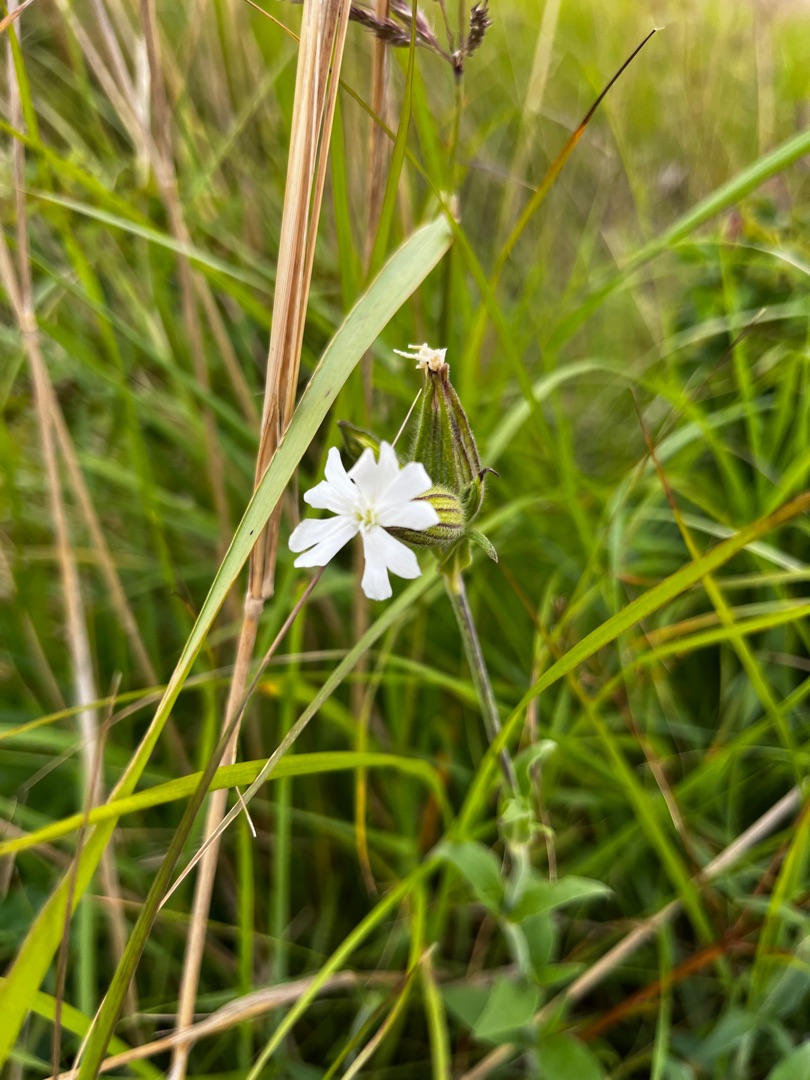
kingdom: Plantae
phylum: Tracheophyta
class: Magnoliopsida
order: Caryophyllales
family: Caryophyllaceae
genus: Silene
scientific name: Silene latifolia
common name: Aftenpragtstjerne
